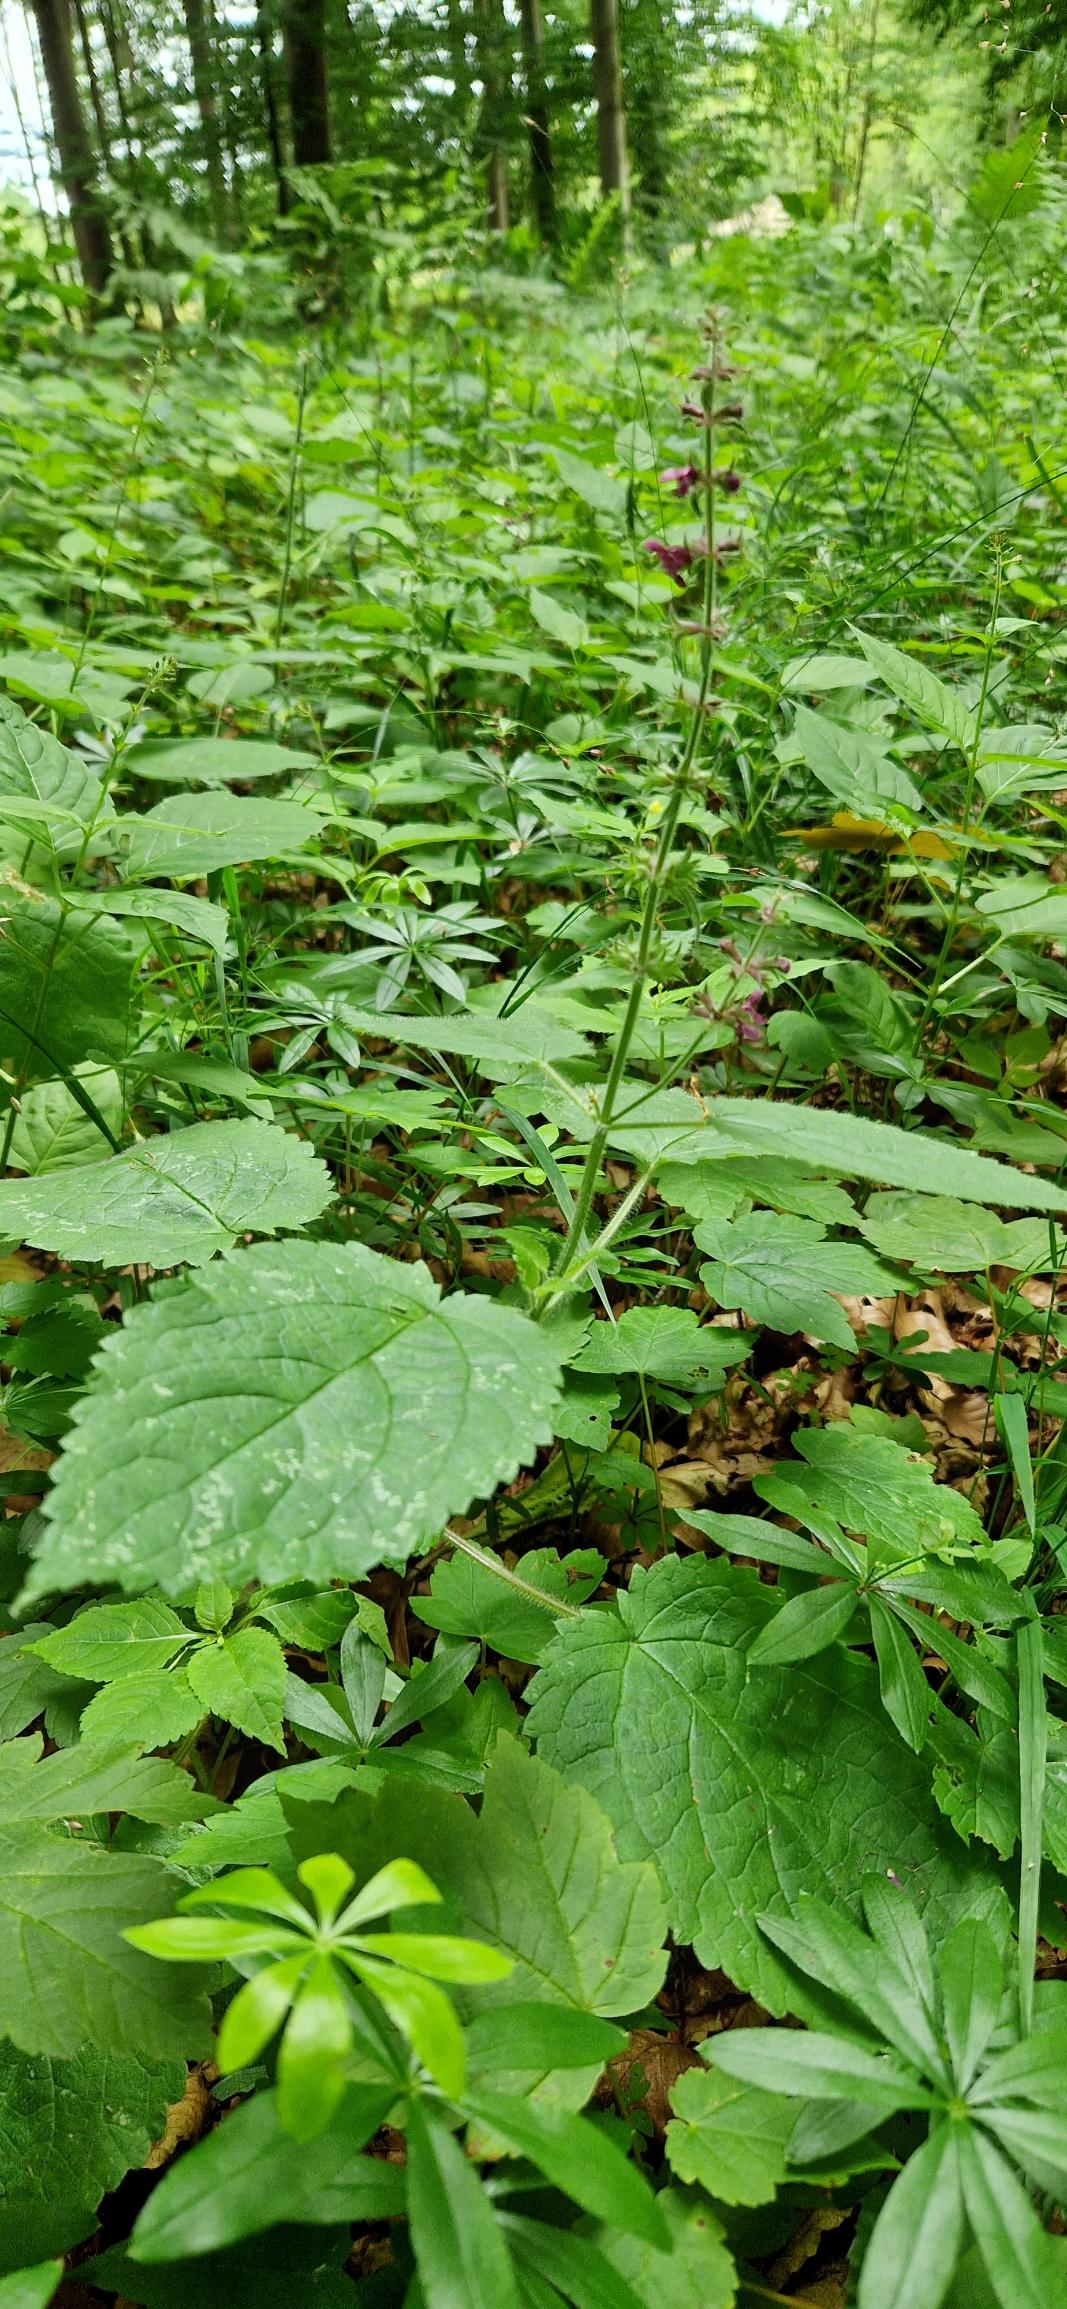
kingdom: Plantae
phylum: Tracheophyta
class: Magnoliopsida
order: Lamiales
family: Lamiaceae
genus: Stachys
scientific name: Stachys sylvatica
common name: Skov-galtetand
